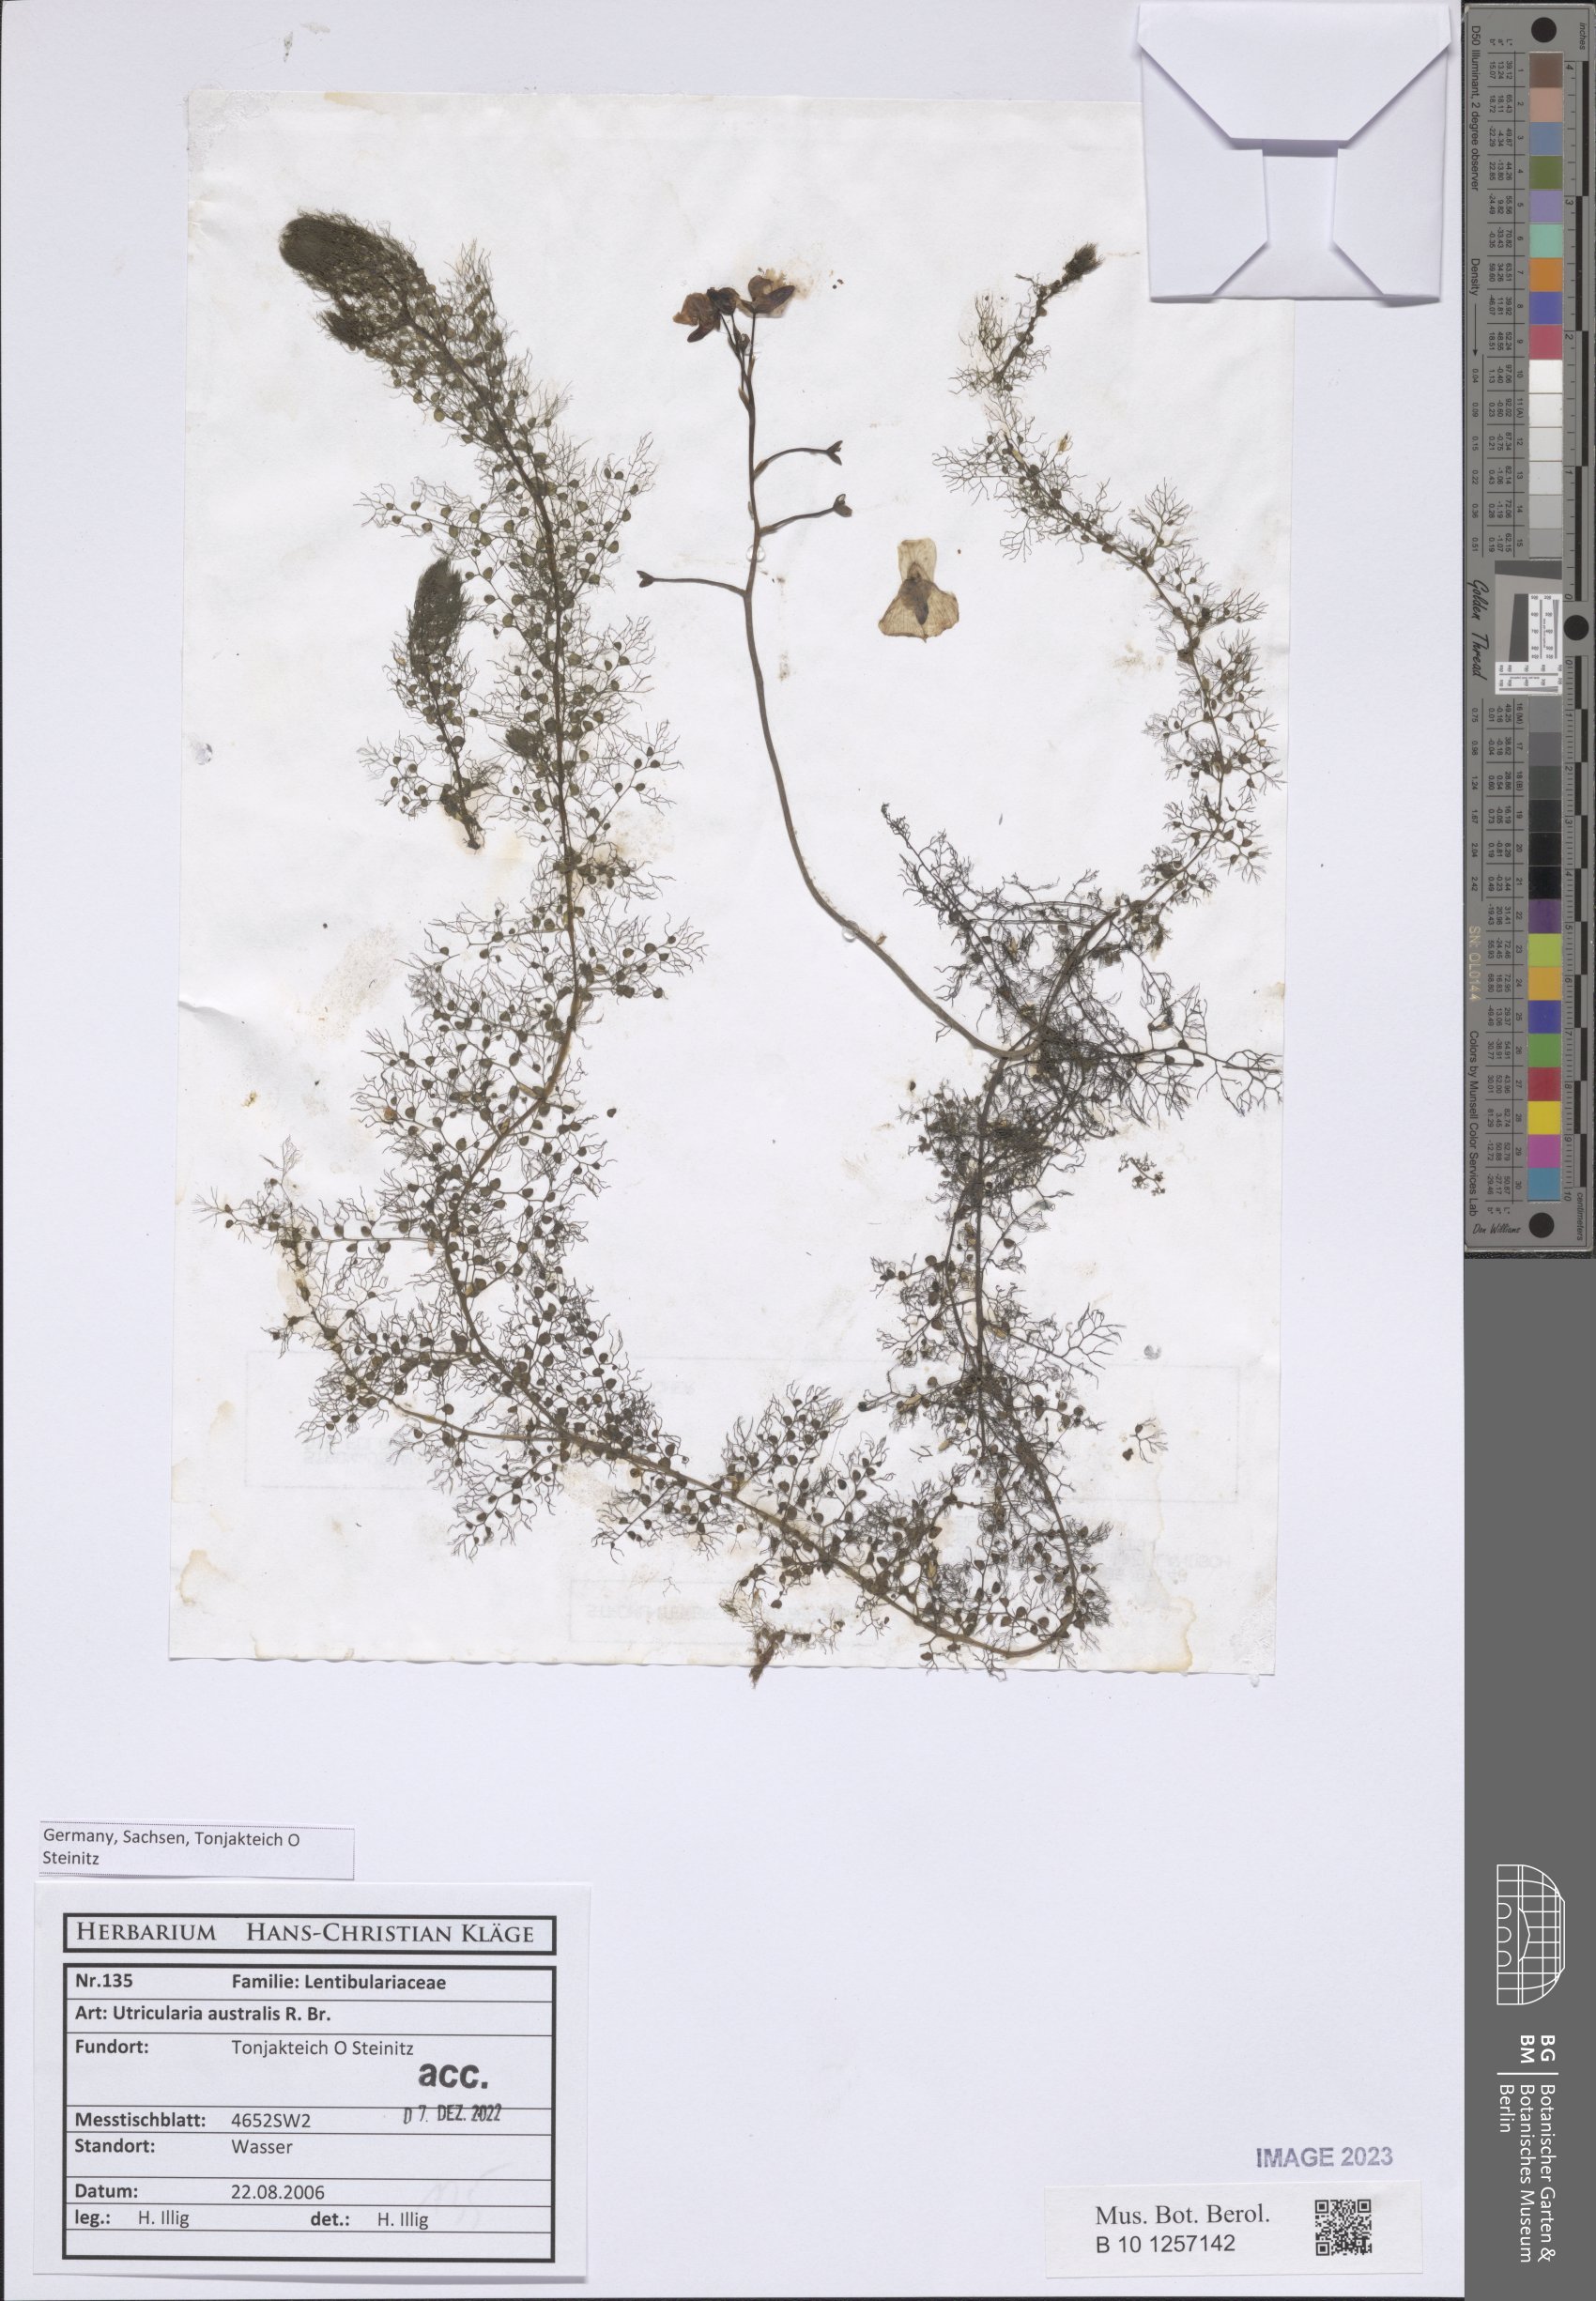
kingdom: Plantae
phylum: Tracheophyta
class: Magnoliopsida
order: Lamiales
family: Lentibulariaceae
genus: Utricularia
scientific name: Utricularia australis
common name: Bladderwort
